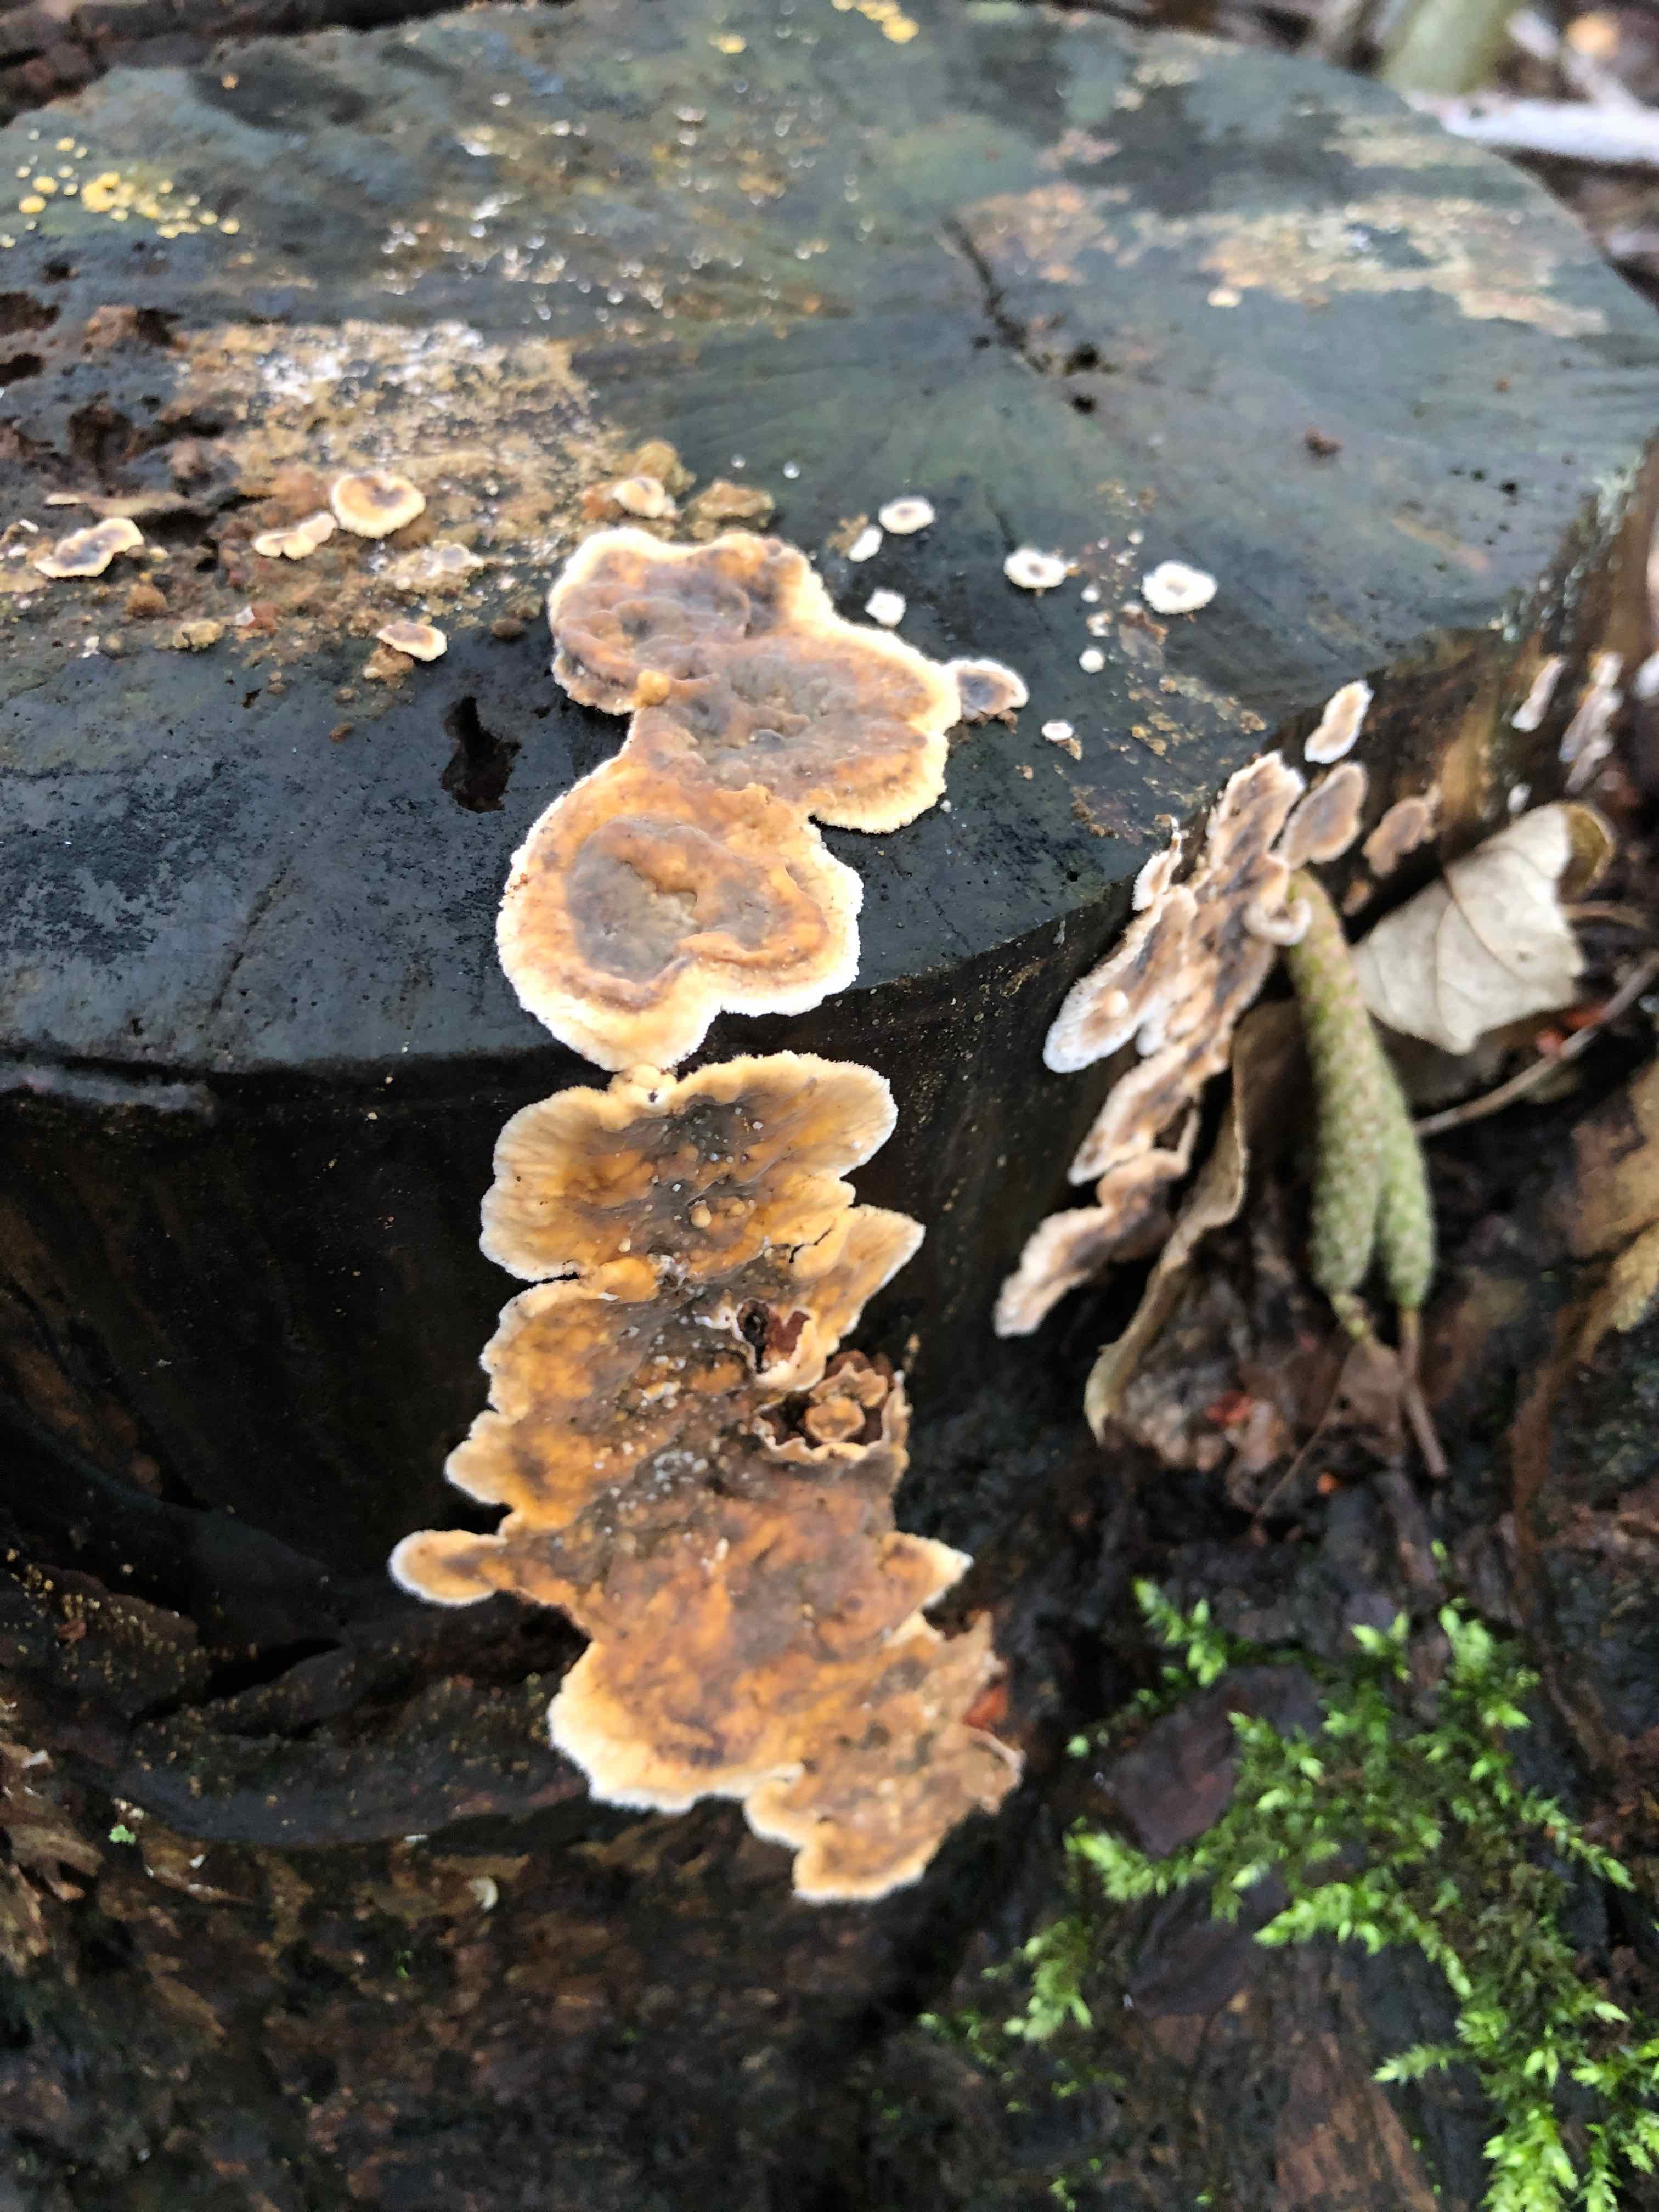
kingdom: Fungi
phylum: Basidiomycota
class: Agaricomycetes
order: Russulales
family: Stereaceae
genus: Stereum
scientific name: Stereum rugosum
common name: rynket lædersvamp
